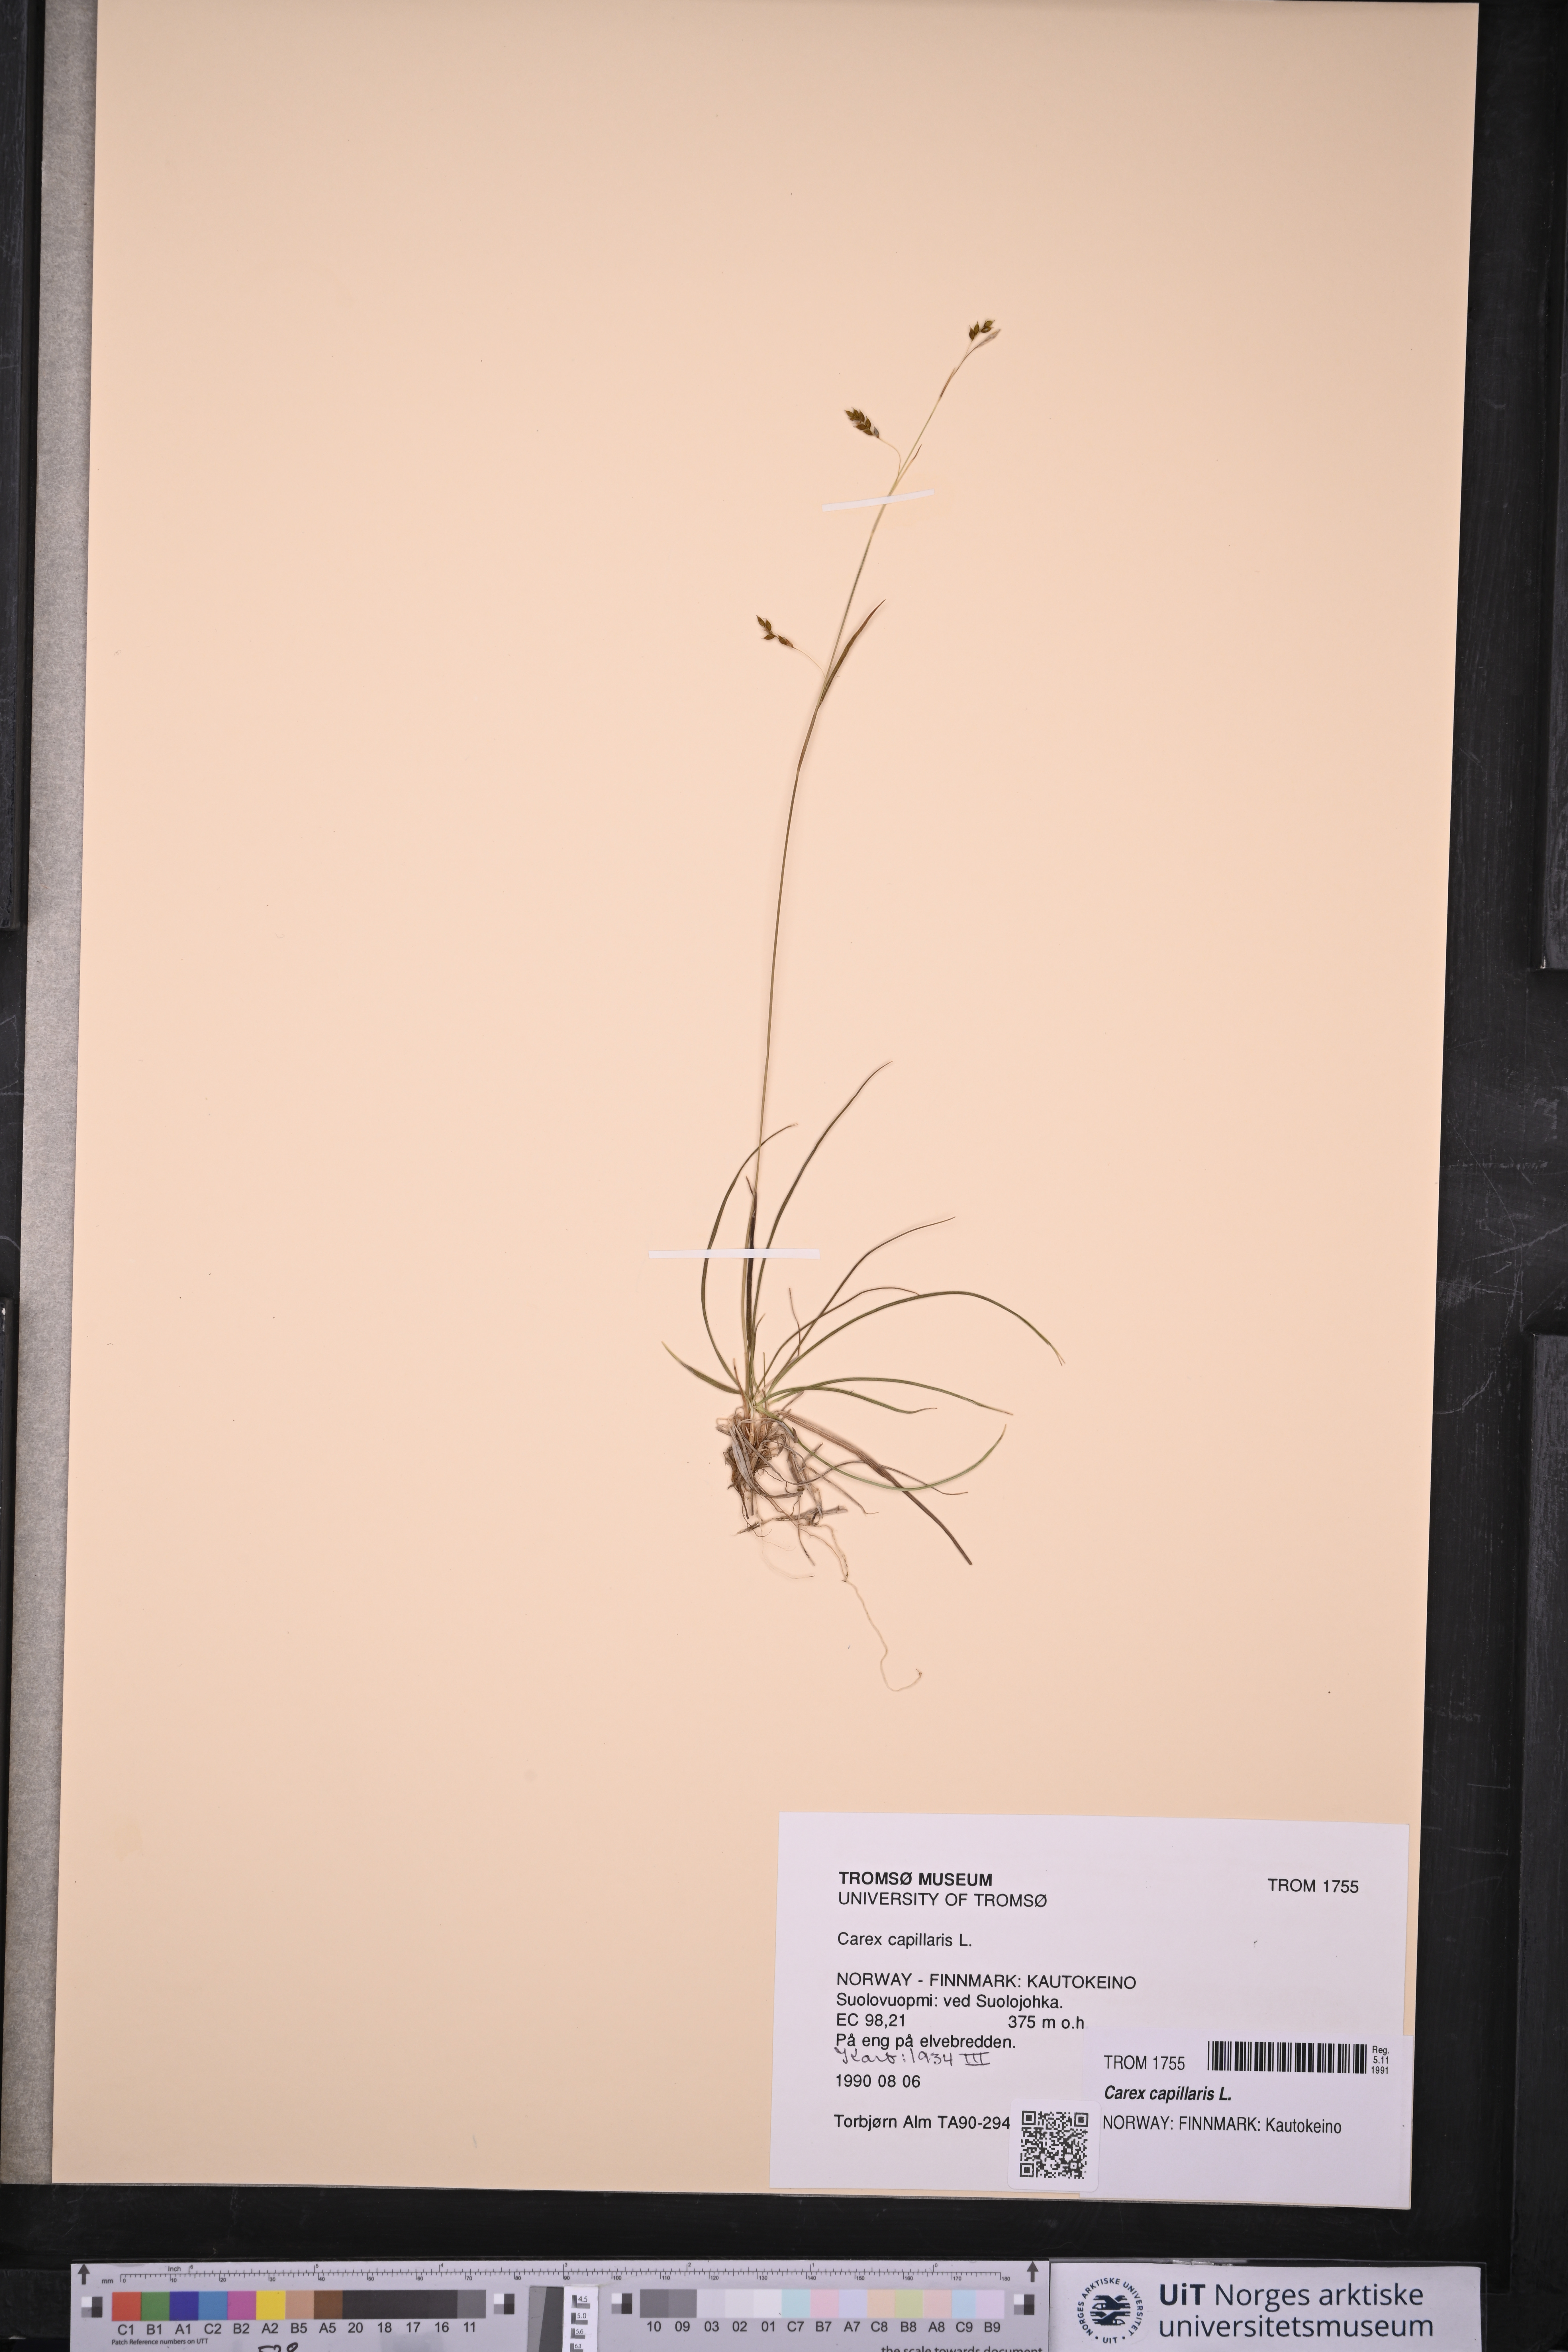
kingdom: Plantae
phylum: Tracheophyta
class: Liliopsida
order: Poales
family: Cyperaceae
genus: Carex
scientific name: Carex capillaris
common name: Hair sedge
